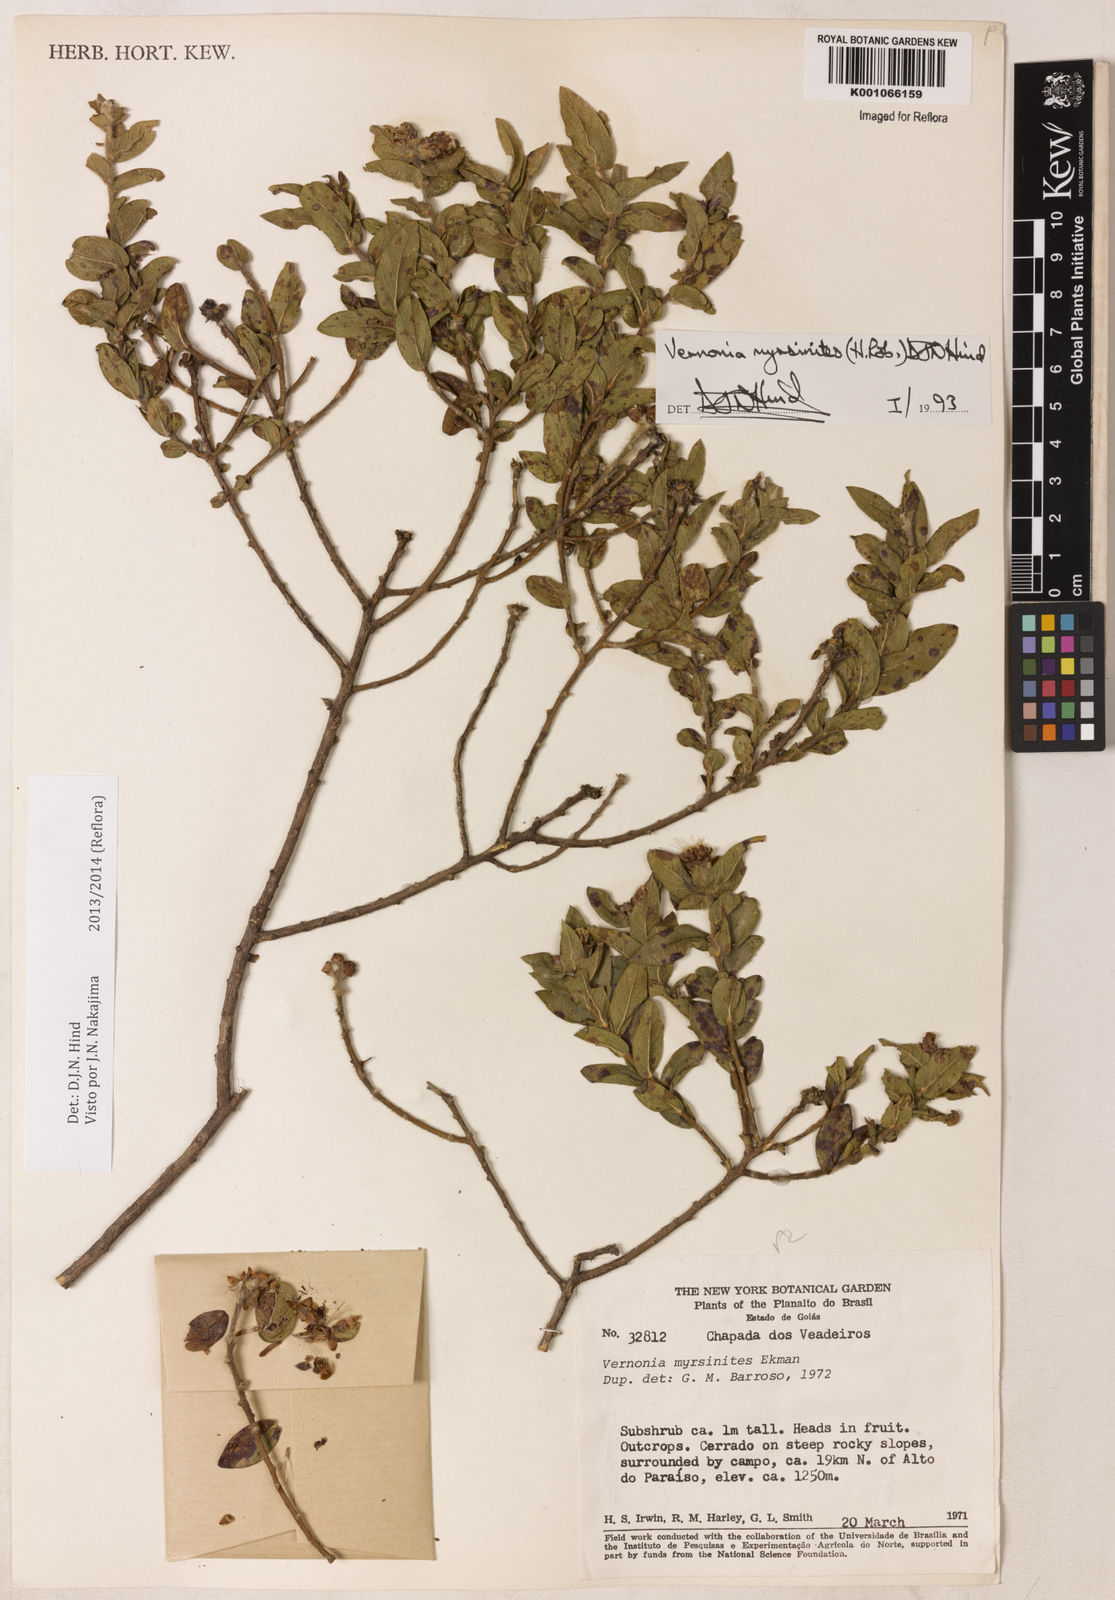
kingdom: Plantae
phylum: Tracheophyta
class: Magnoliopsida
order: Asterales
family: Asteraceae
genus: Lessingianthus
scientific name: Lessingianthus myrsinites
